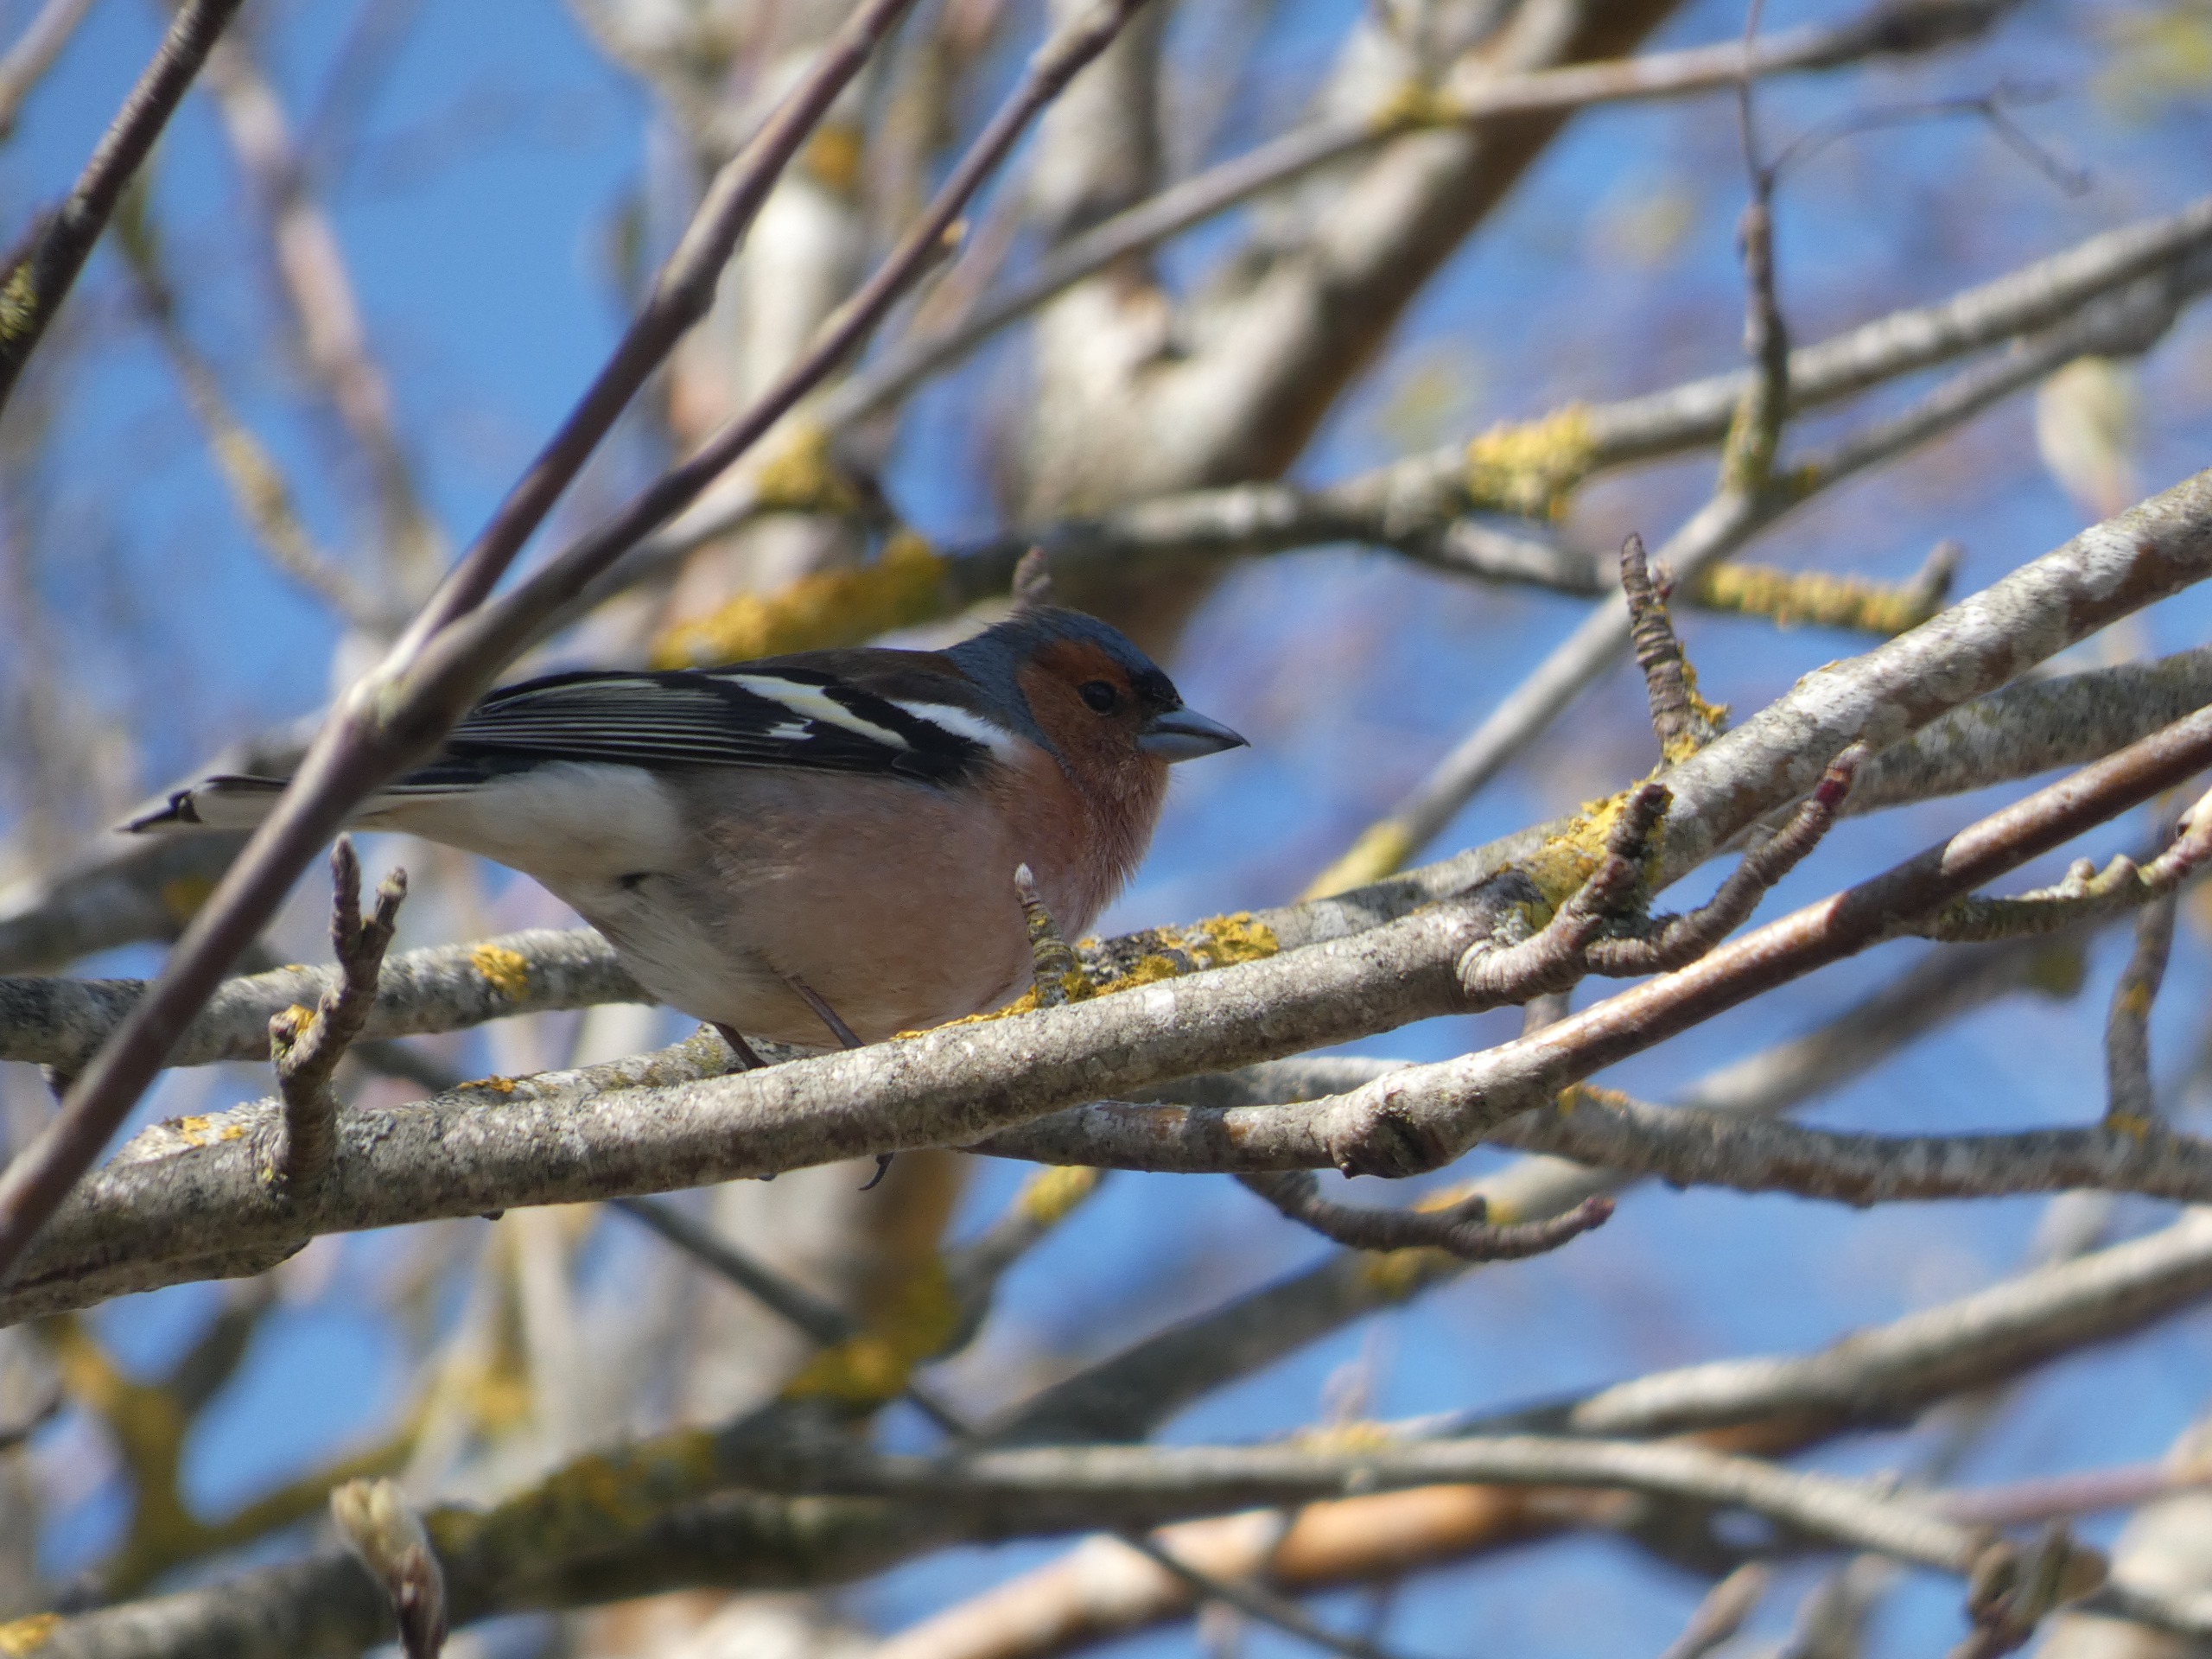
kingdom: Animalia
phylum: Chordata
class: Aves
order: Passeriformes
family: Fringillidae
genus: Fringilla
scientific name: Fringilla coelebs
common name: Bogfinke
